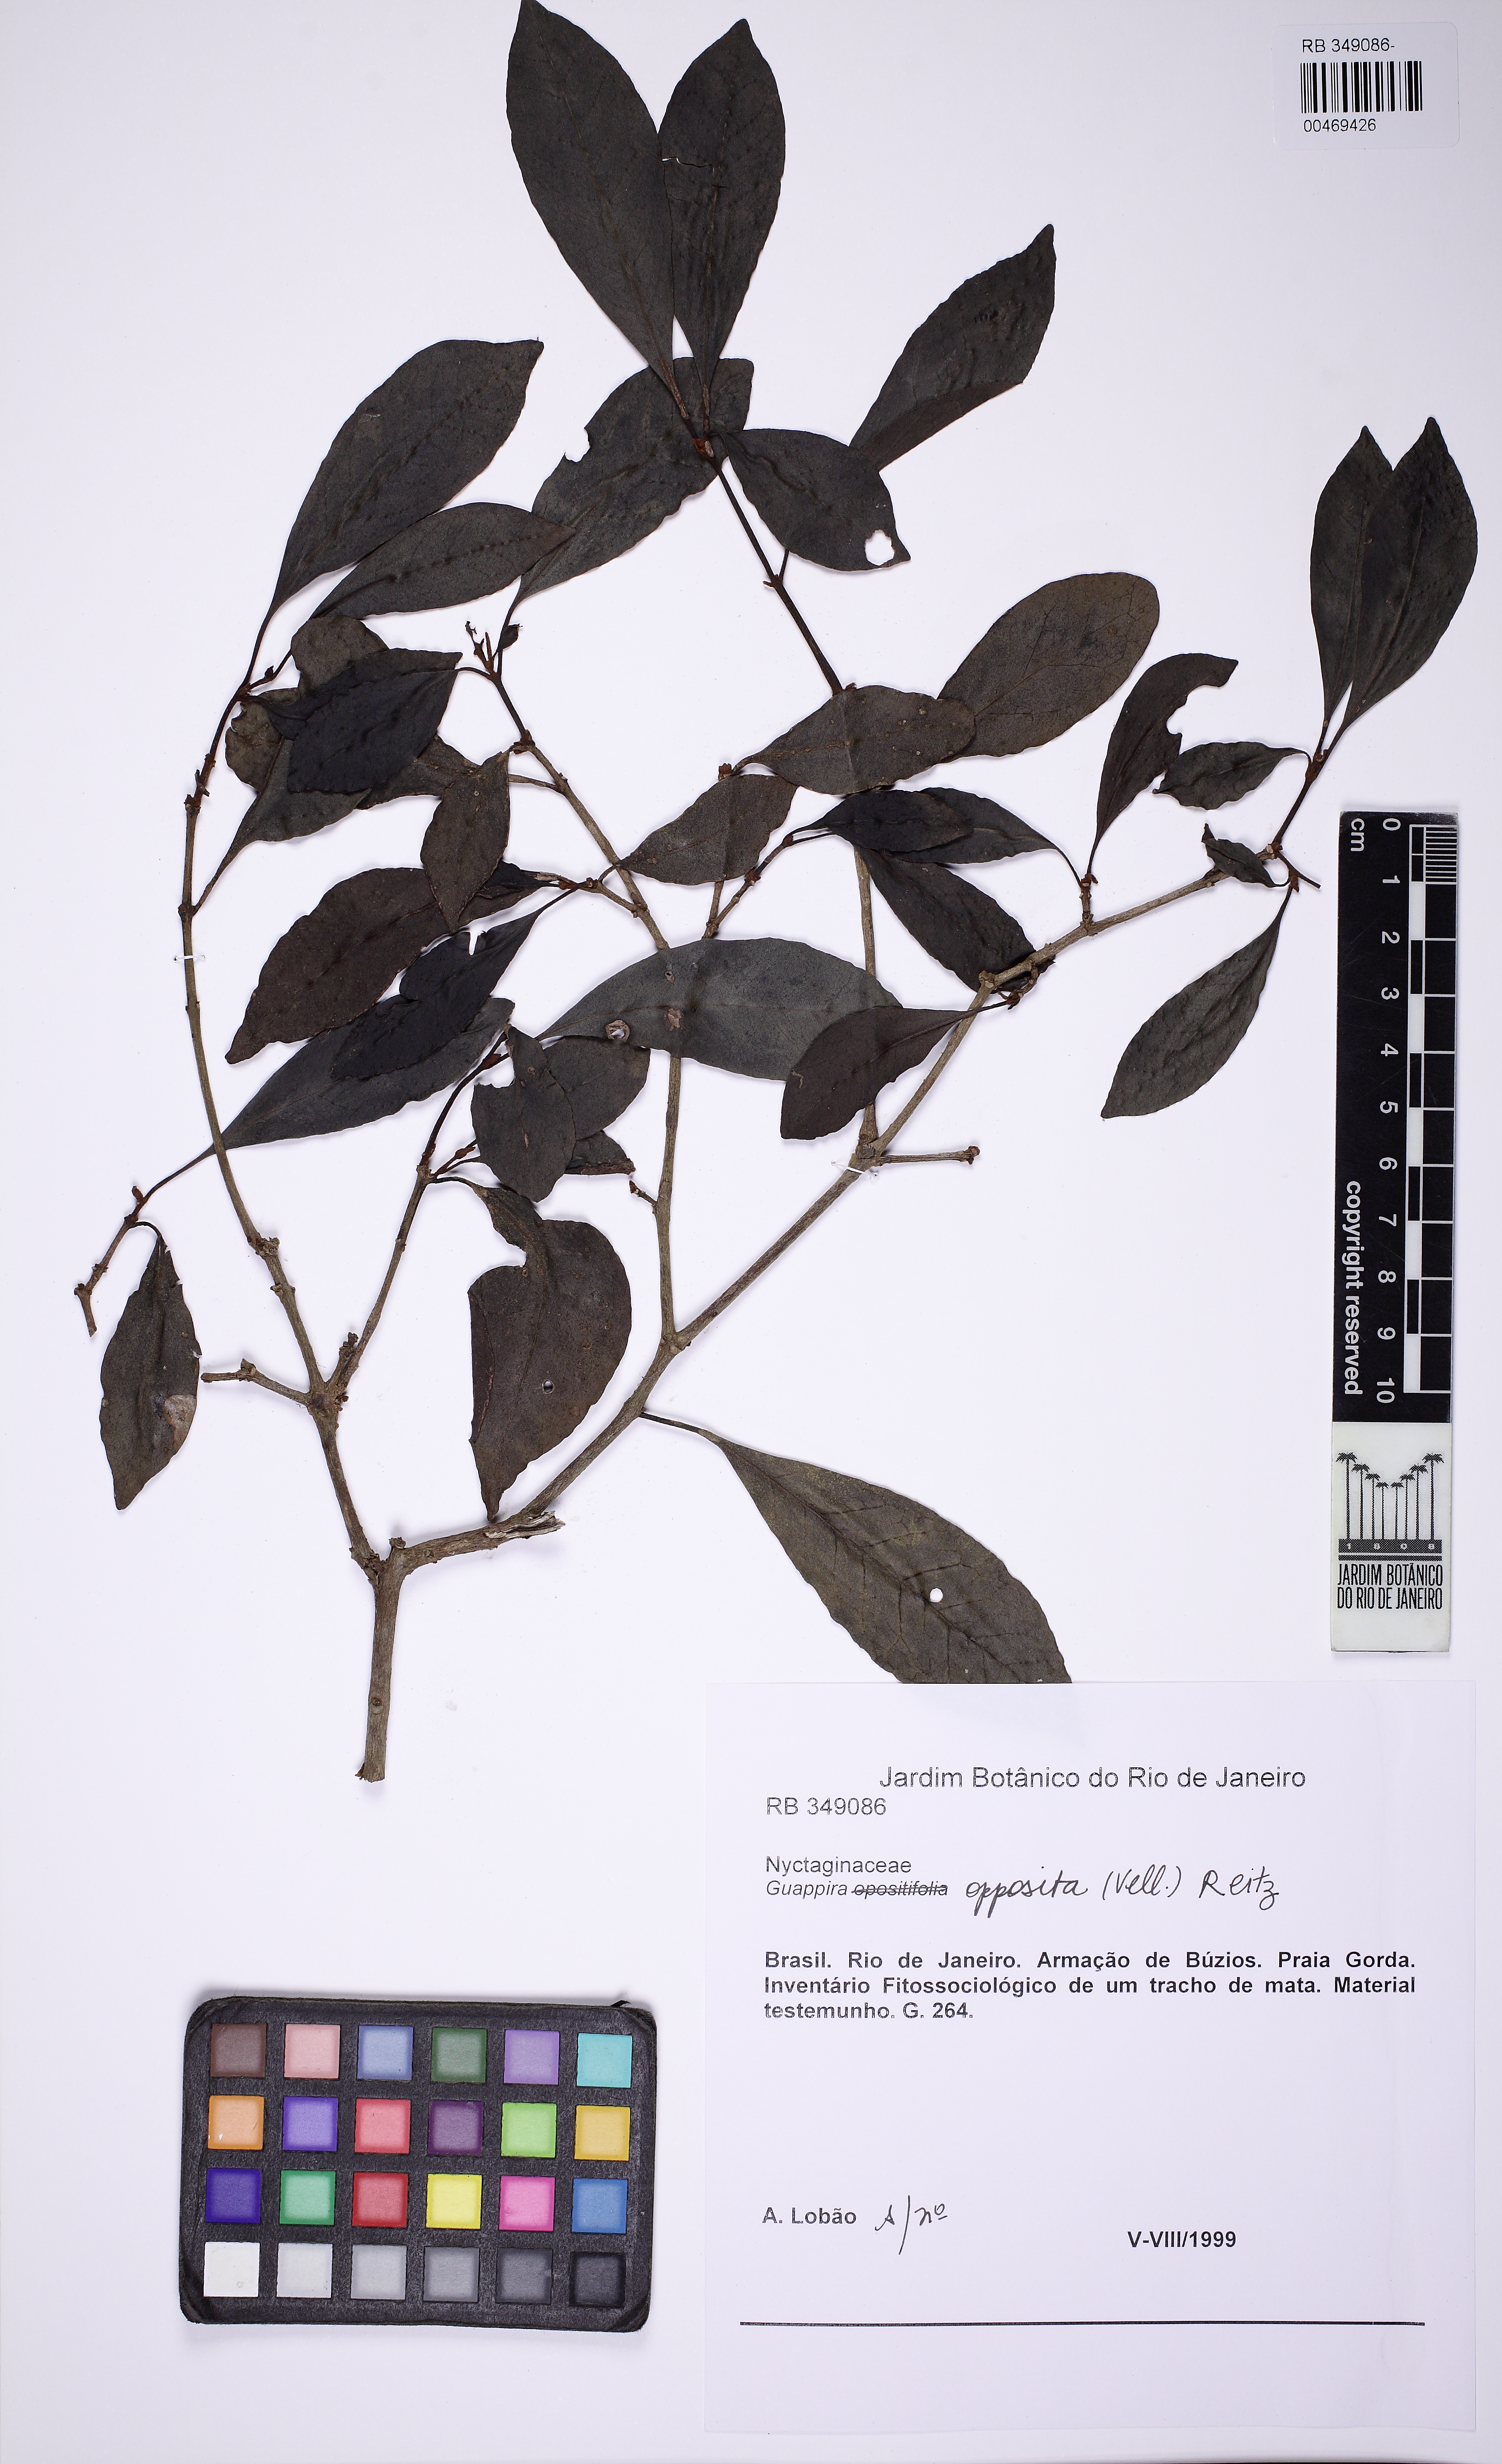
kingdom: Plantae
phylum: Tracheophyta
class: Magnoliopsida
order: Caryophyllales
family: Nyctaginaceae
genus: Guapira
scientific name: Guapira opposita
